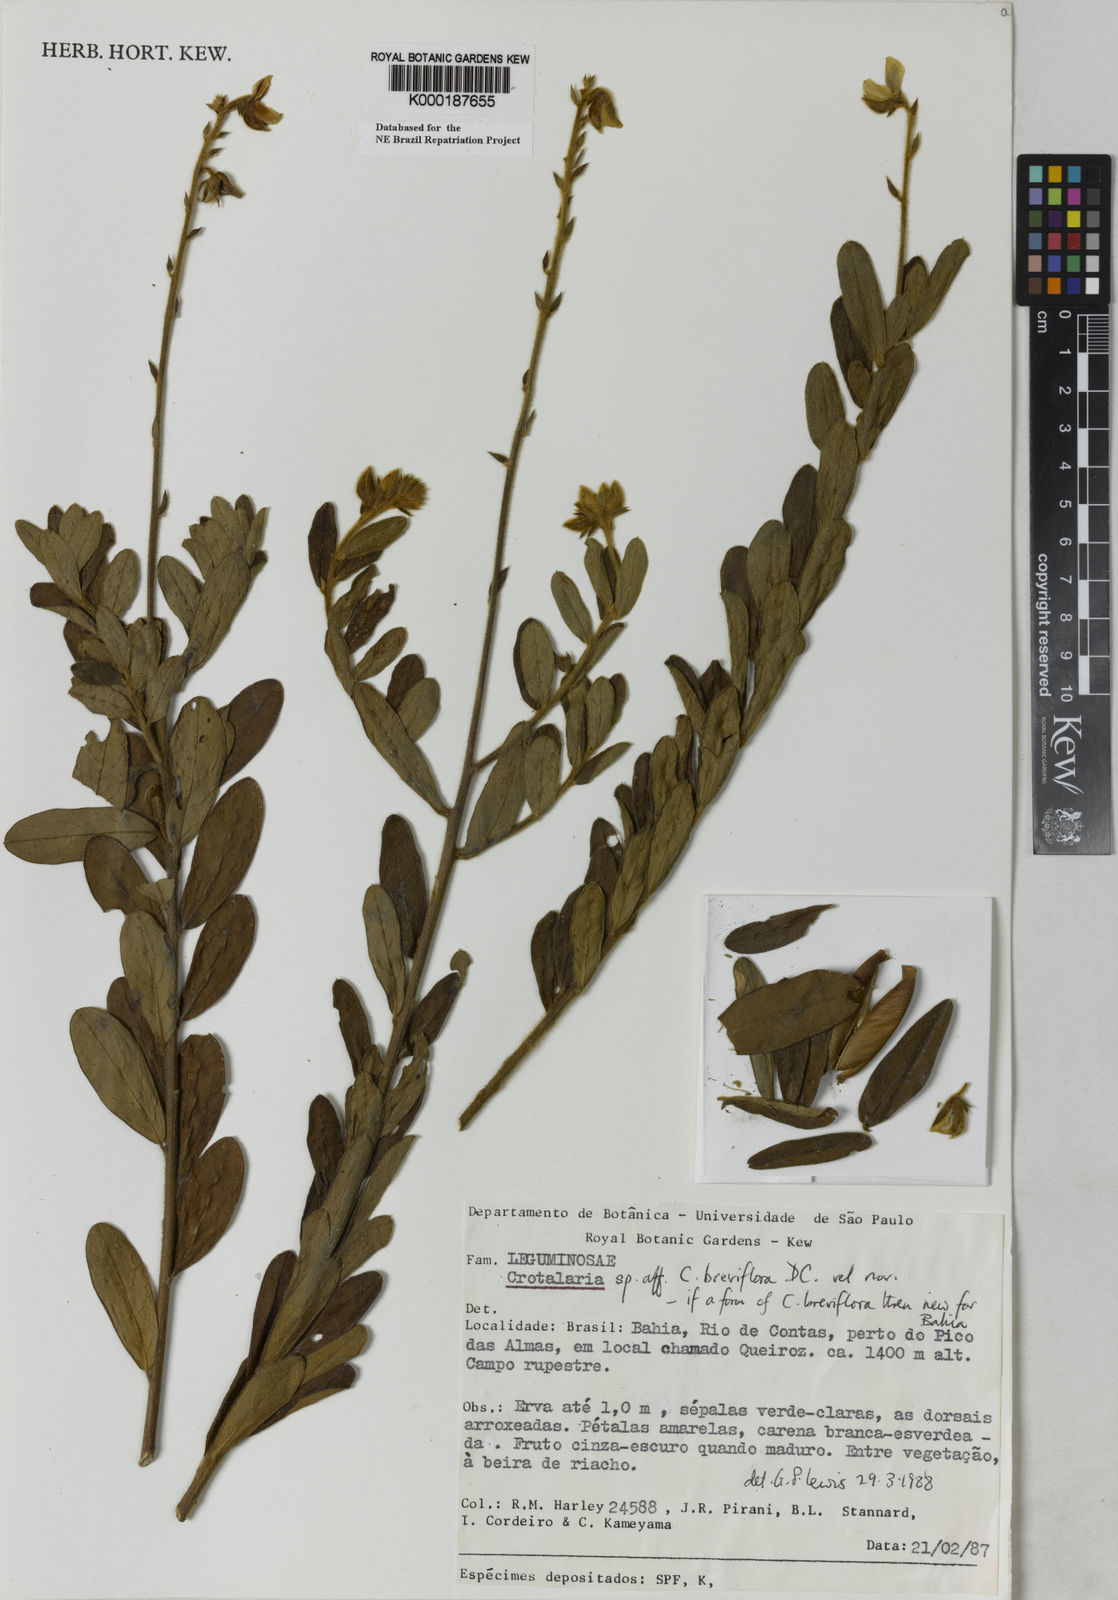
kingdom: Plantae
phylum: Tracheophyta
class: Magnoliopsida
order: Fabales
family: Fabaceae
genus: Crotalaria
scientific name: Crotalaria martiana
